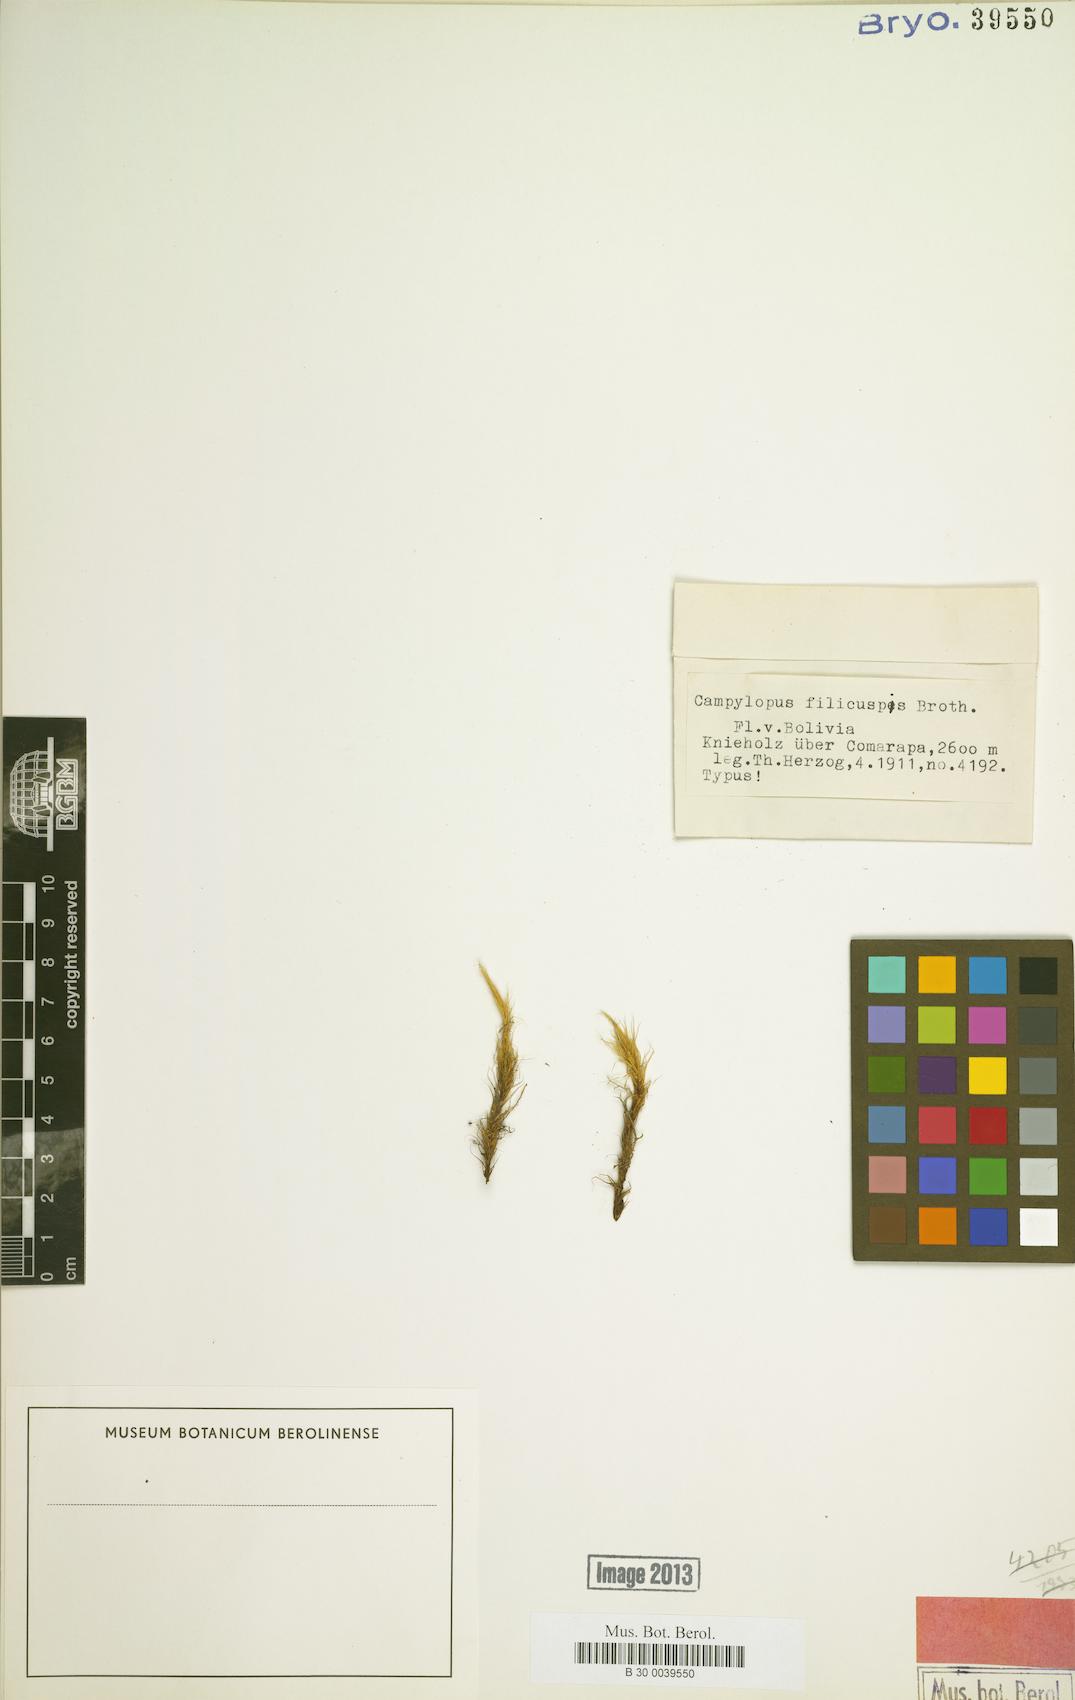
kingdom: Plantae
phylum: Bryophyta
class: Bryopsida
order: Dicranales
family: Leucobryaceae
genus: Campylopus
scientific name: Campylopus densicoma
